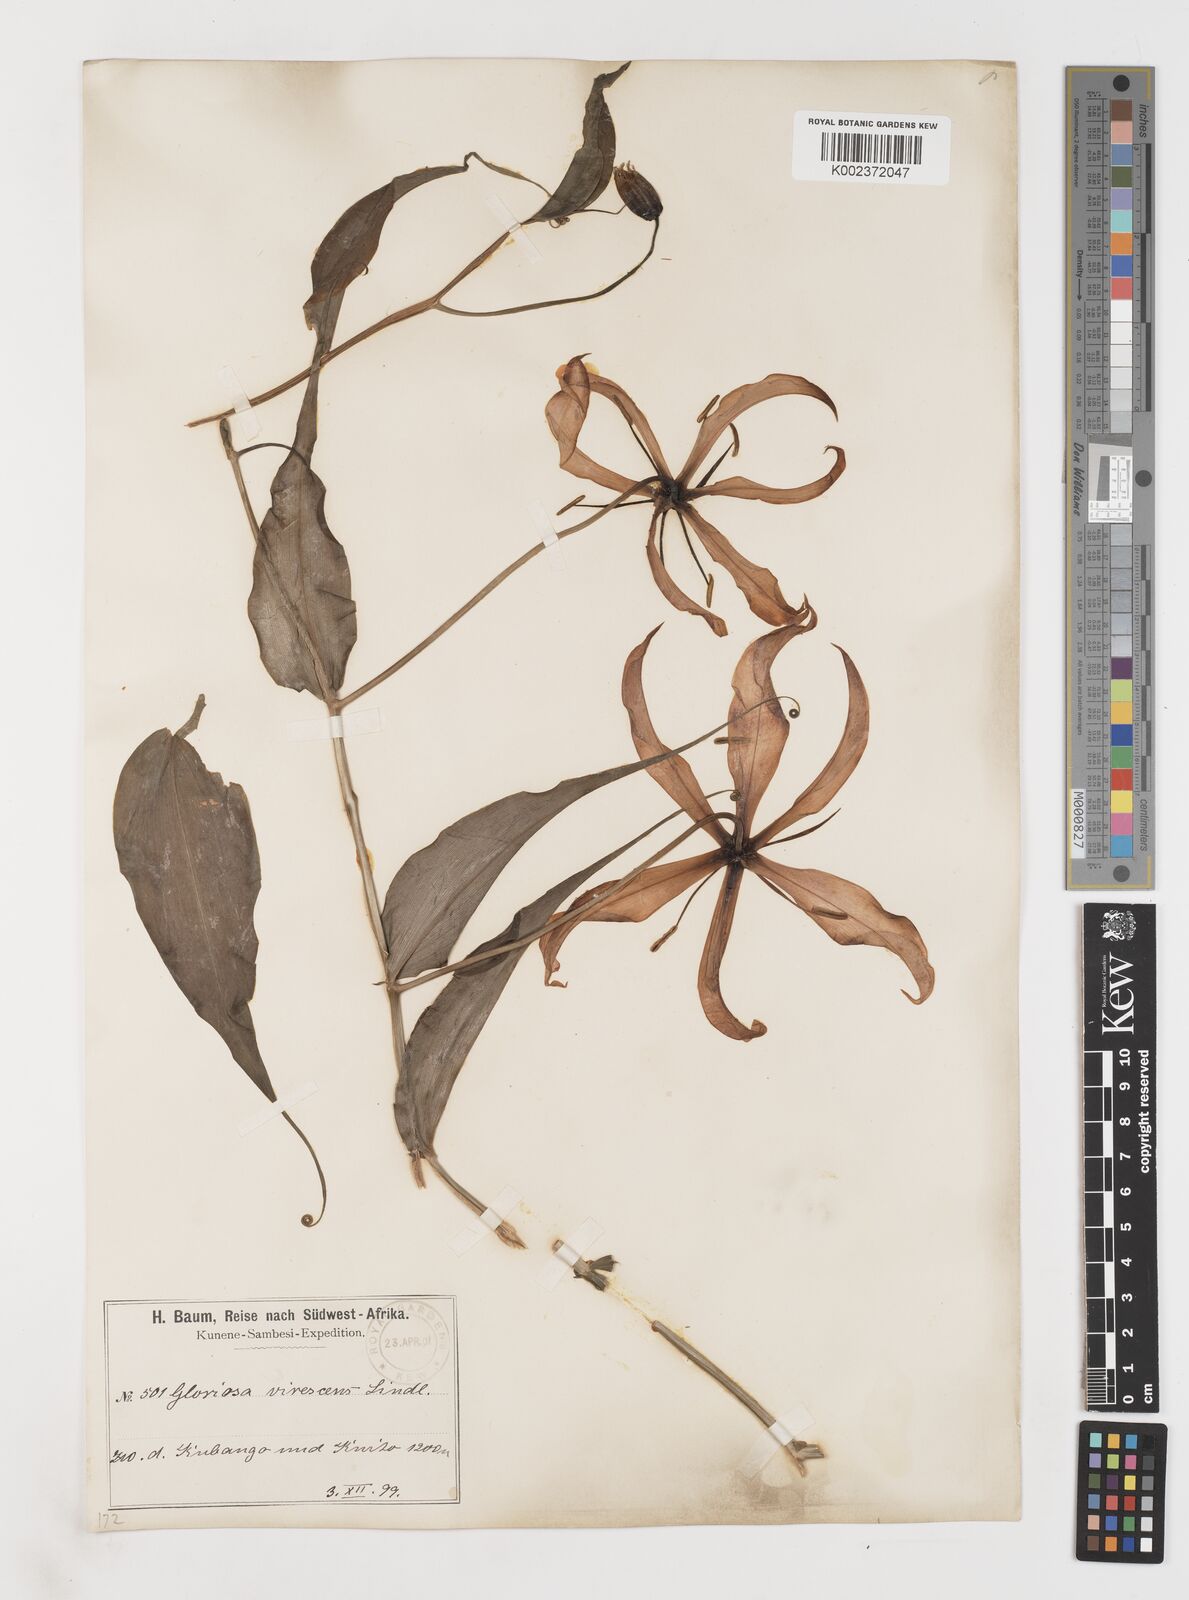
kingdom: Plantae
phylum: Tracheophyta
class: Liliopsida
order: Liliales
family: Colchicaceae
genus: Gloriosa
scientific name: Gloriosa simplex
